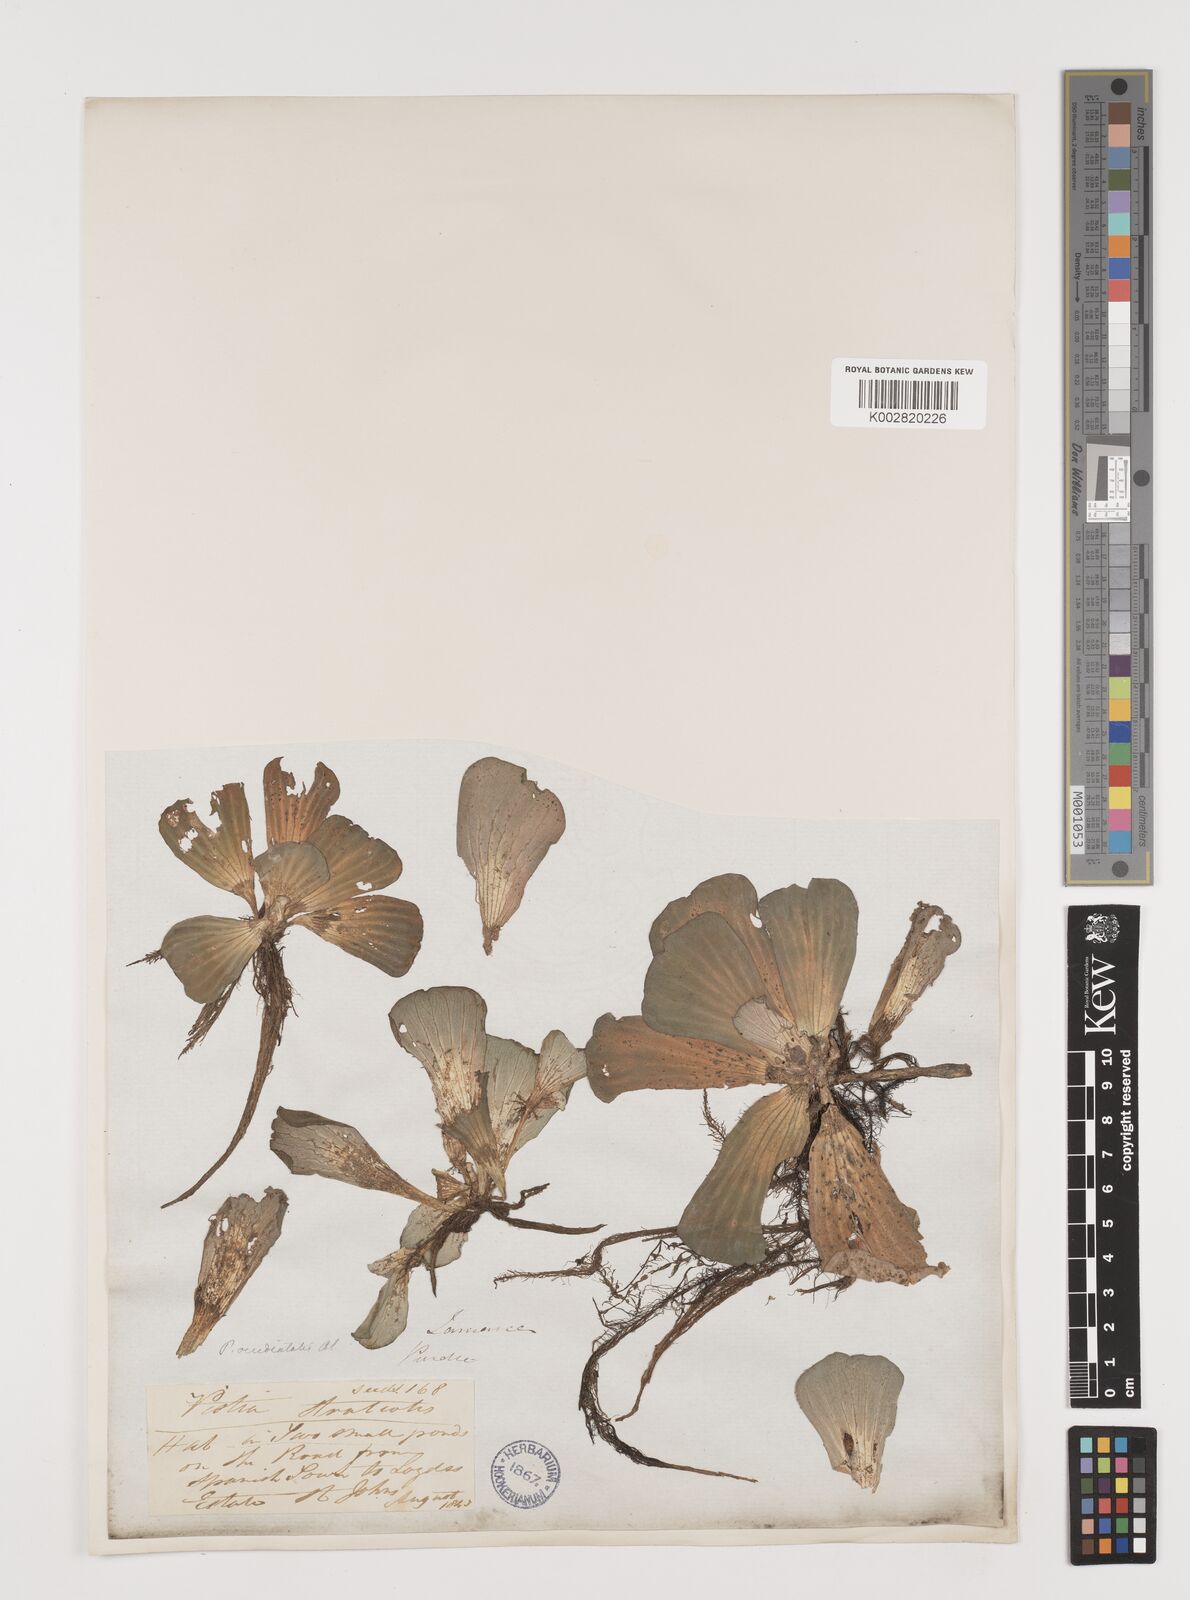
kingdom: Plantae
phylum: Tracheophyta
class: Liliopsida
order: Alismatales
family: Araceae
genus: Pistia
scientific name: Pistia stratiotes
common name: Water lettuce
